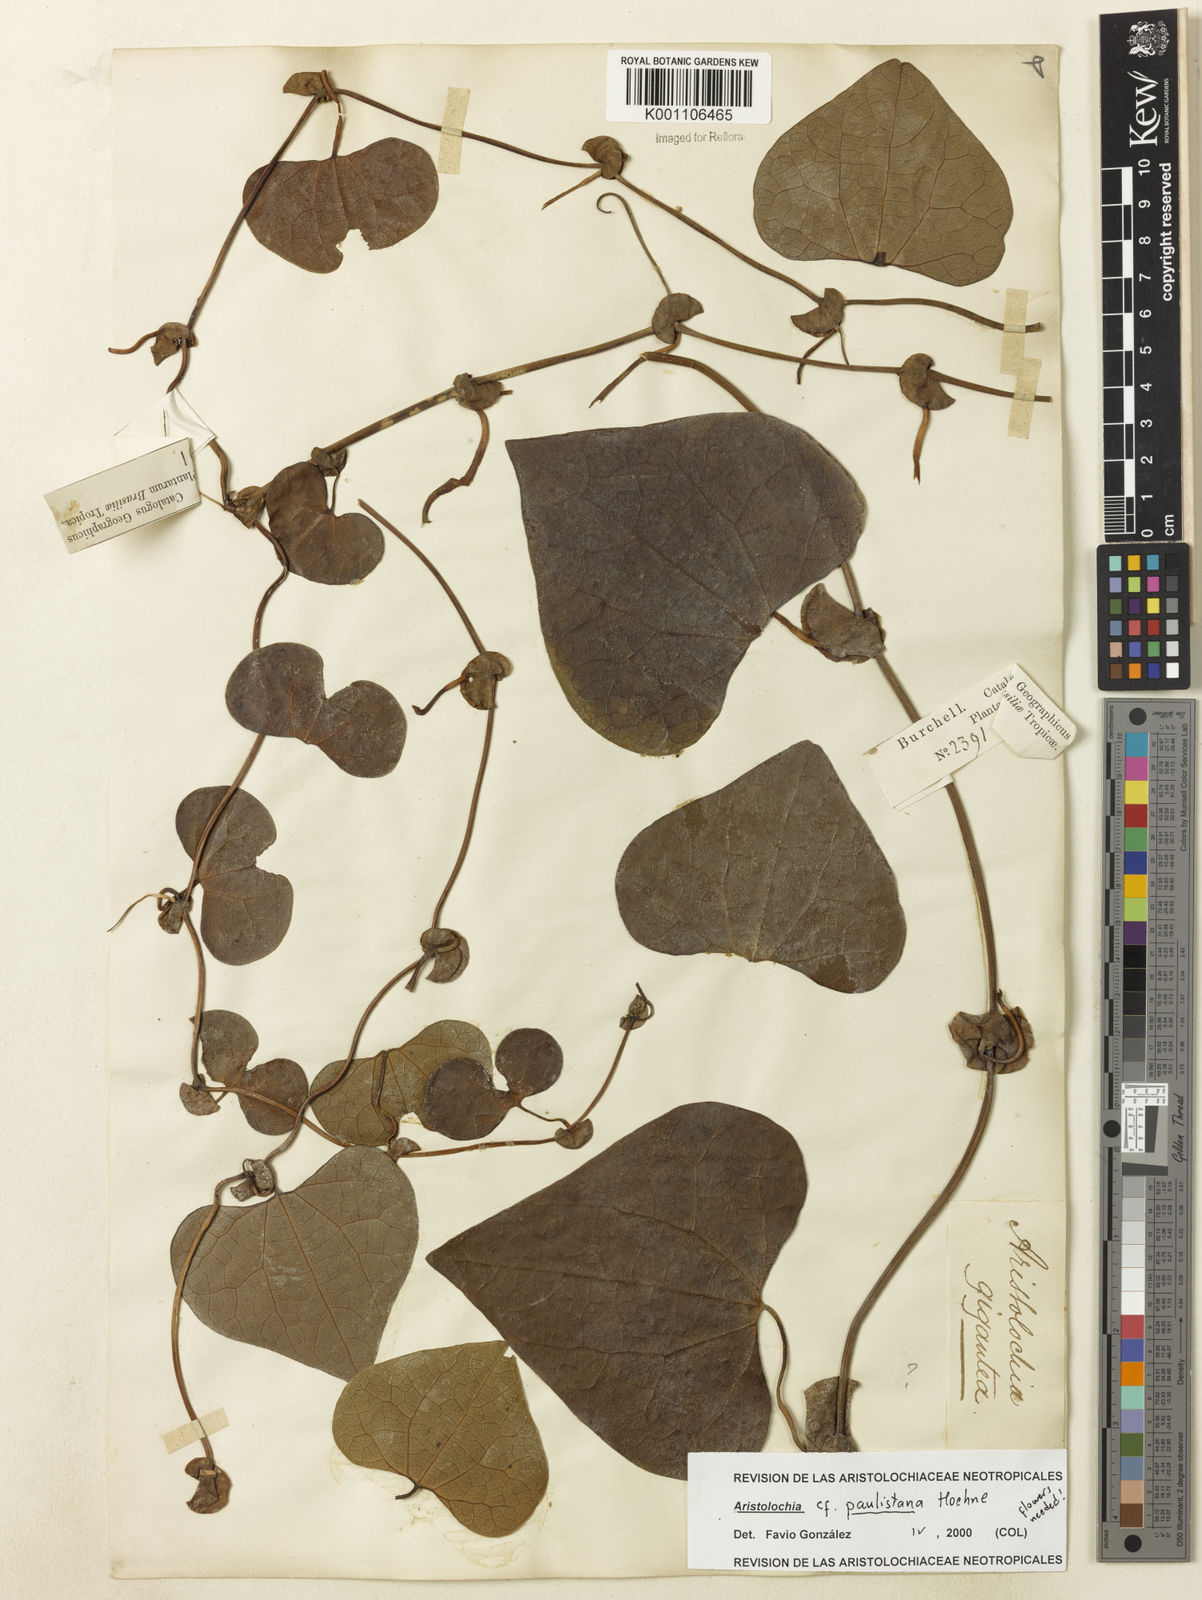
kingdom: Plantae
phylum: Tracheophyta
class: Magnoliopsida
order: Piperales
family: Aristolochiaceae
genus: Aristolochia
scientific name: Aristolochia paulistana
